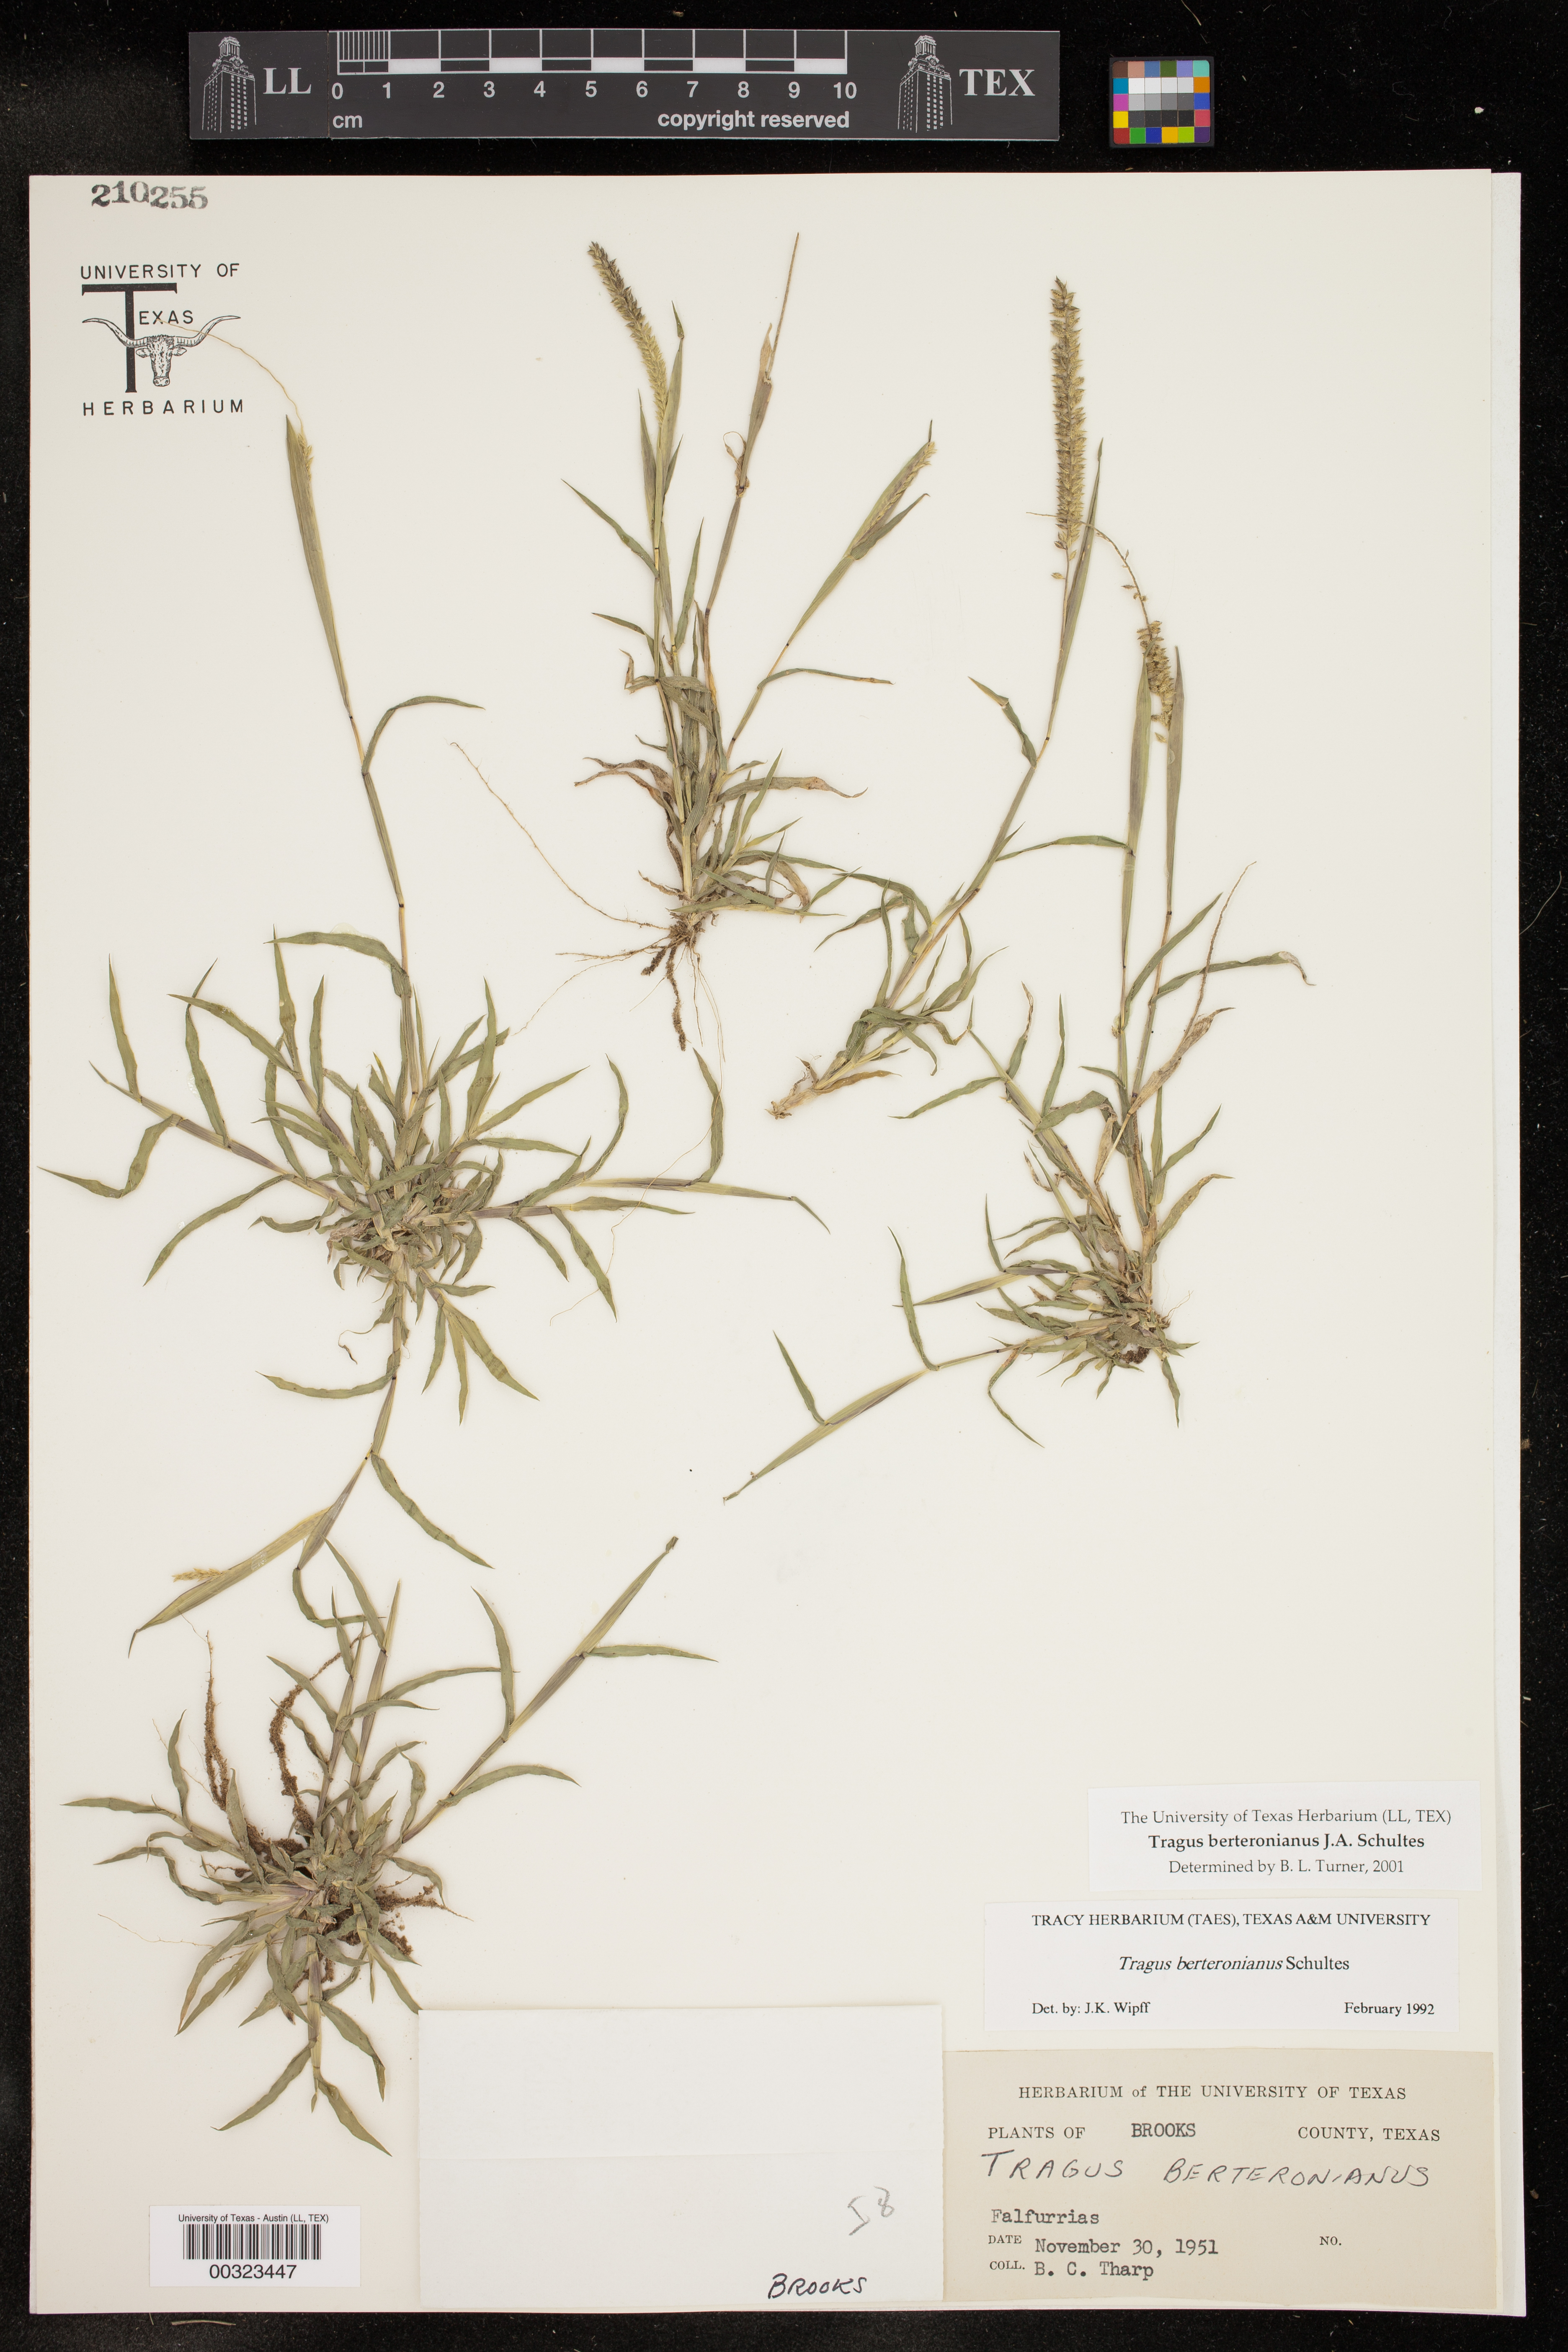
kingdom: Plantae
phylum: Tracheophyta
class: Liliopsida
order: Poales
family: Poaceae
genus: Tragus
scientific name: Tragus berteronianus
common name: African bur-grass
